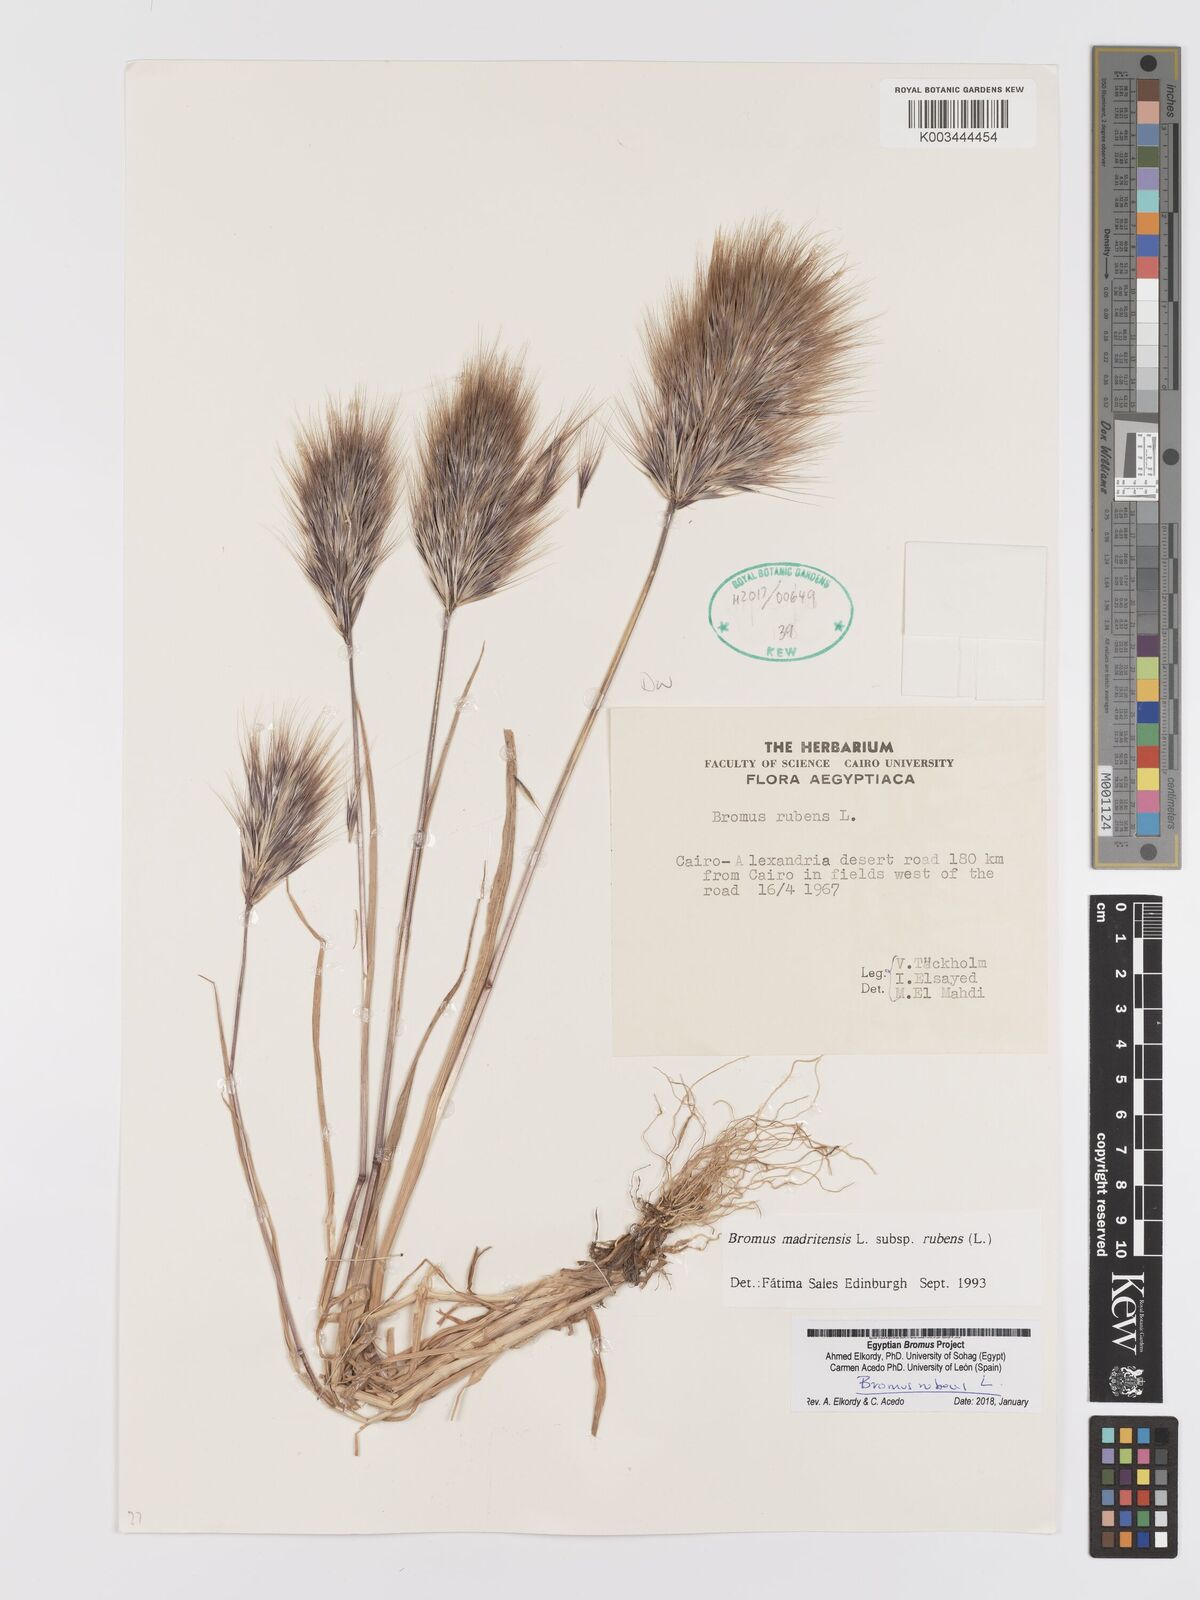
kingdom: Plantae
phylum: Tracheophyta
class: Liliopsida
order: Poales
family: Poaceae
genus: Bromus
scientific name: Bromus rubens
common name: Red brome
